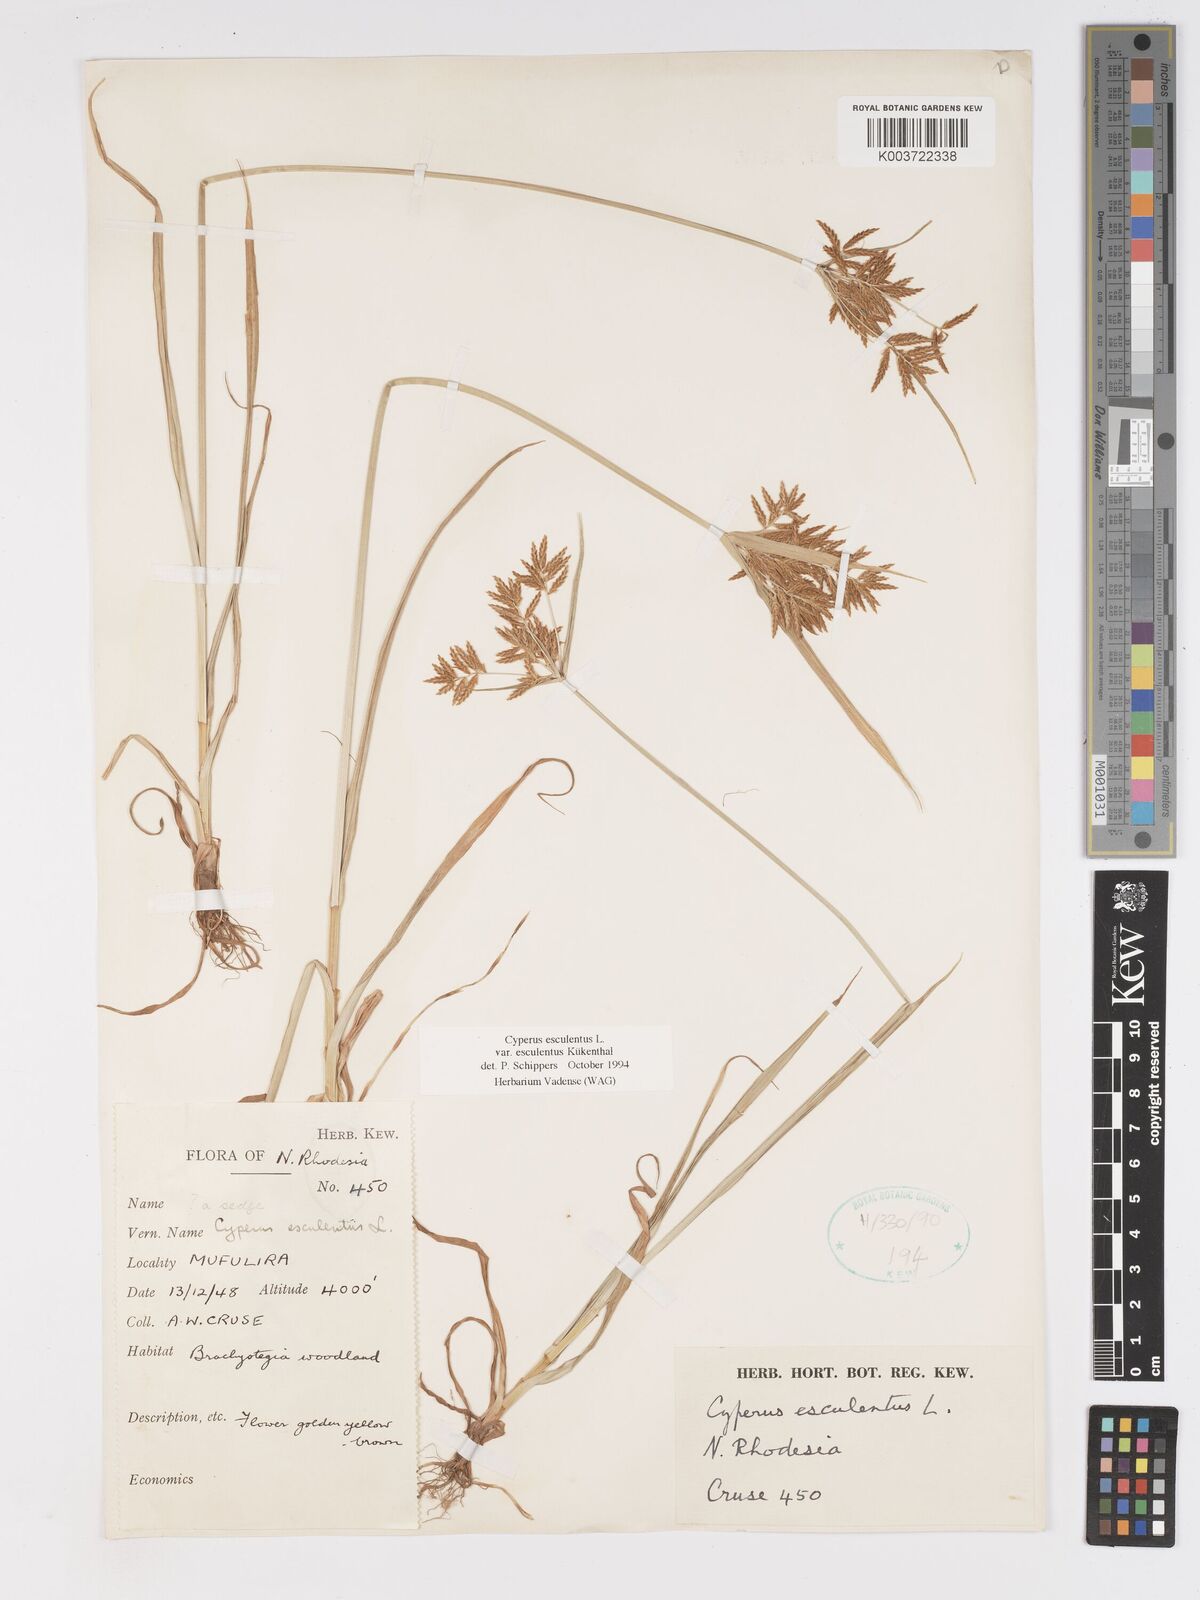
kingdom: Plantae
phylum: Tracheophyta
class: Liliopsida
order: Poales
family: Cyperaceae
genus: Cyperus
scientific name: Cyperus esculentus
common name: Yellow nutsedge
